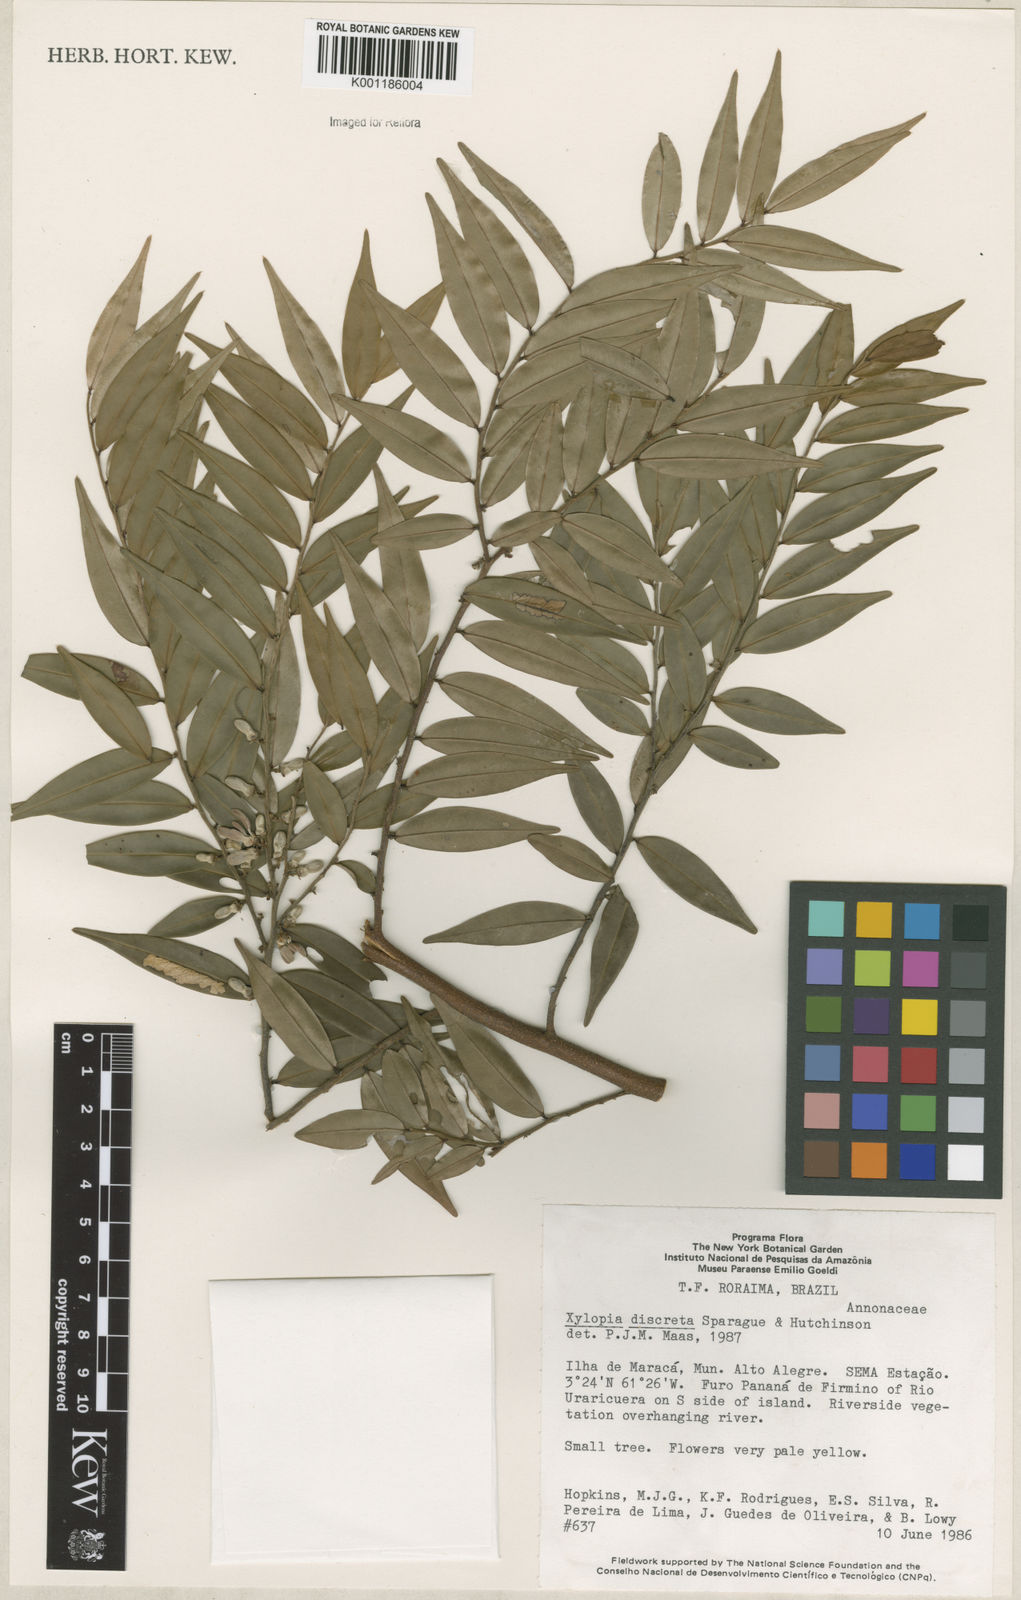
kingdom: Plantae
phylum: Tracheophyta
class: Magnoliopsida
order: Magnoliales
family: Annonaceae
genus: Xylopia
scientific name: Xylopia discreta
